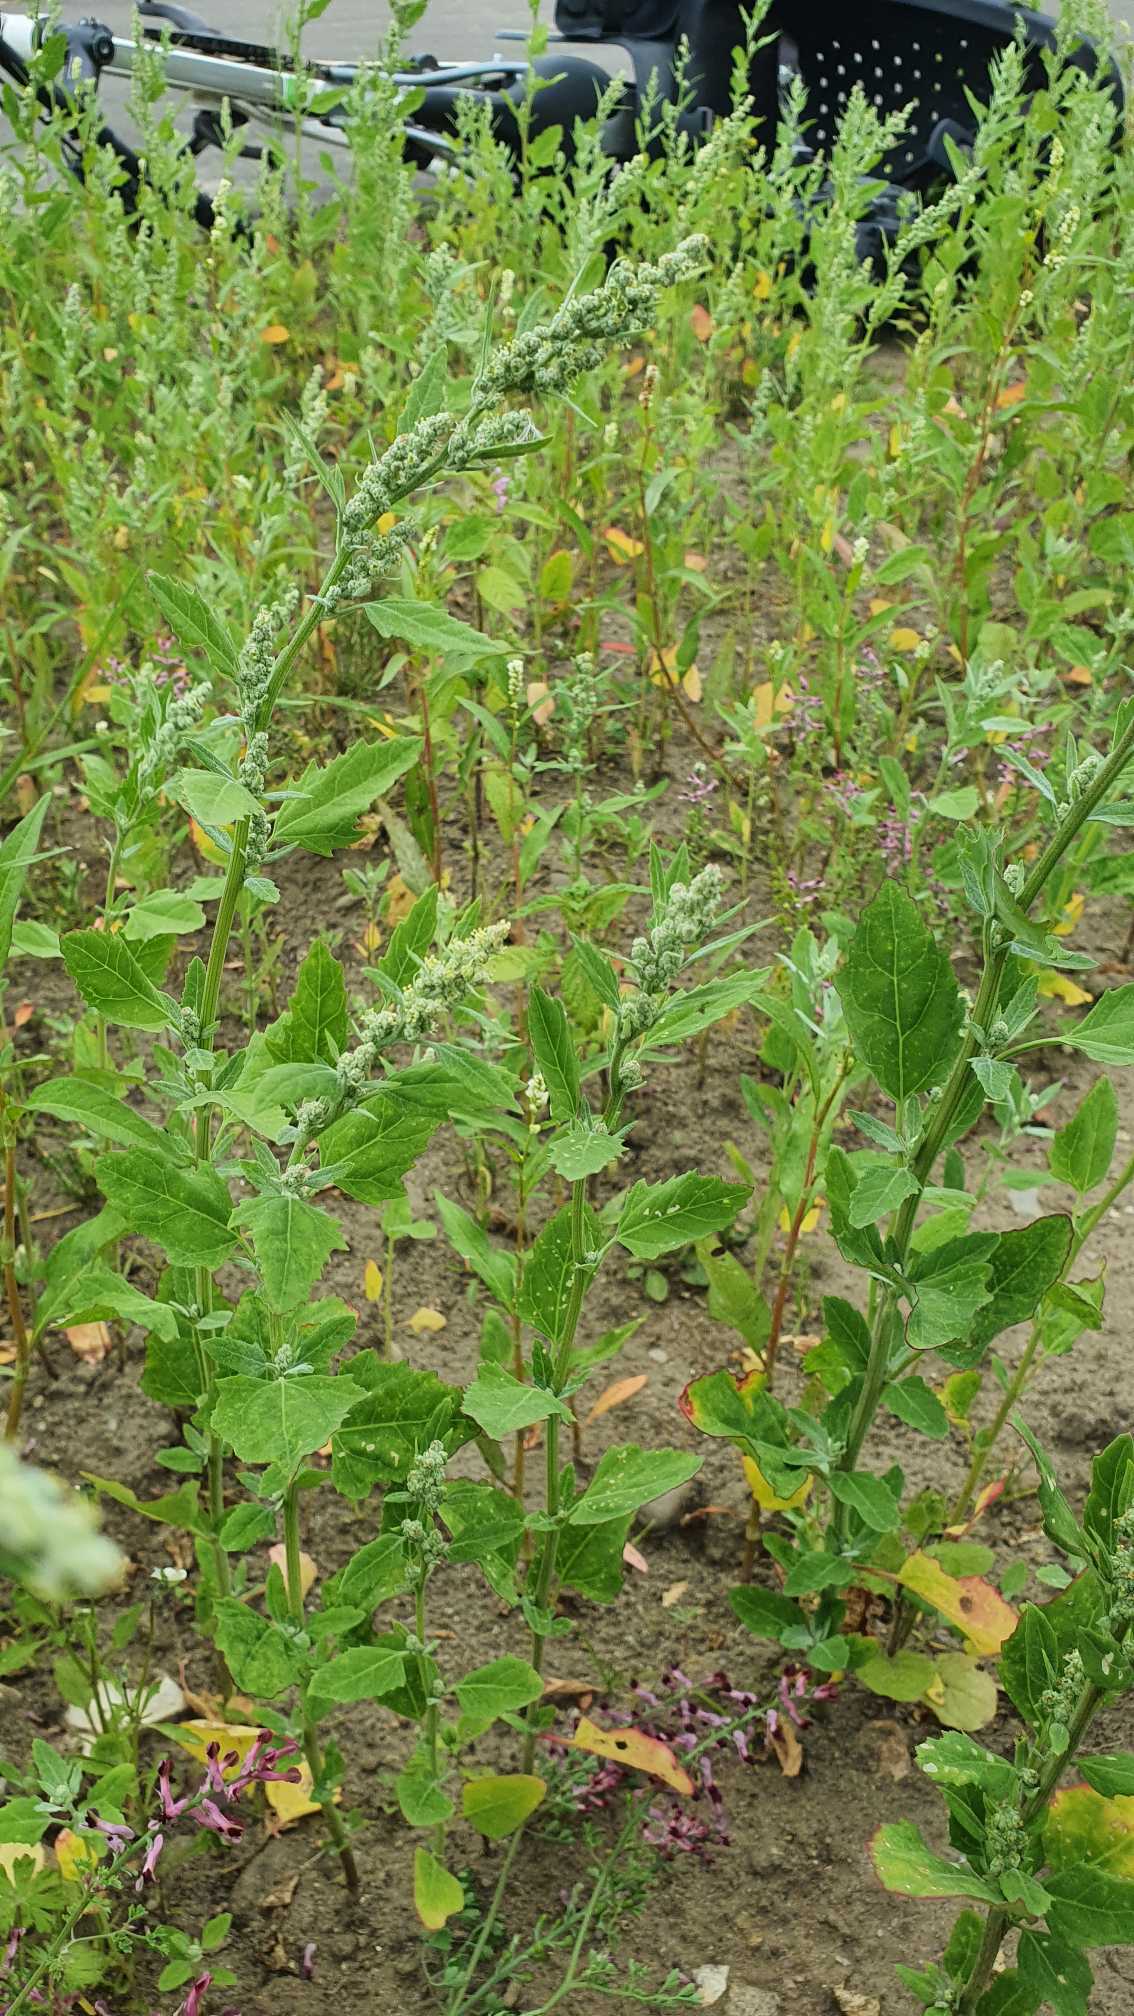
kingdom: Plantae
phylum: Tracheophyta
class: Magnoliopsida
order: Caryophyllales
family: Amaranthaceae
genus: Chenopodium
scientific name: Chenopodium album
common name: Hvidmelet gåsefod
